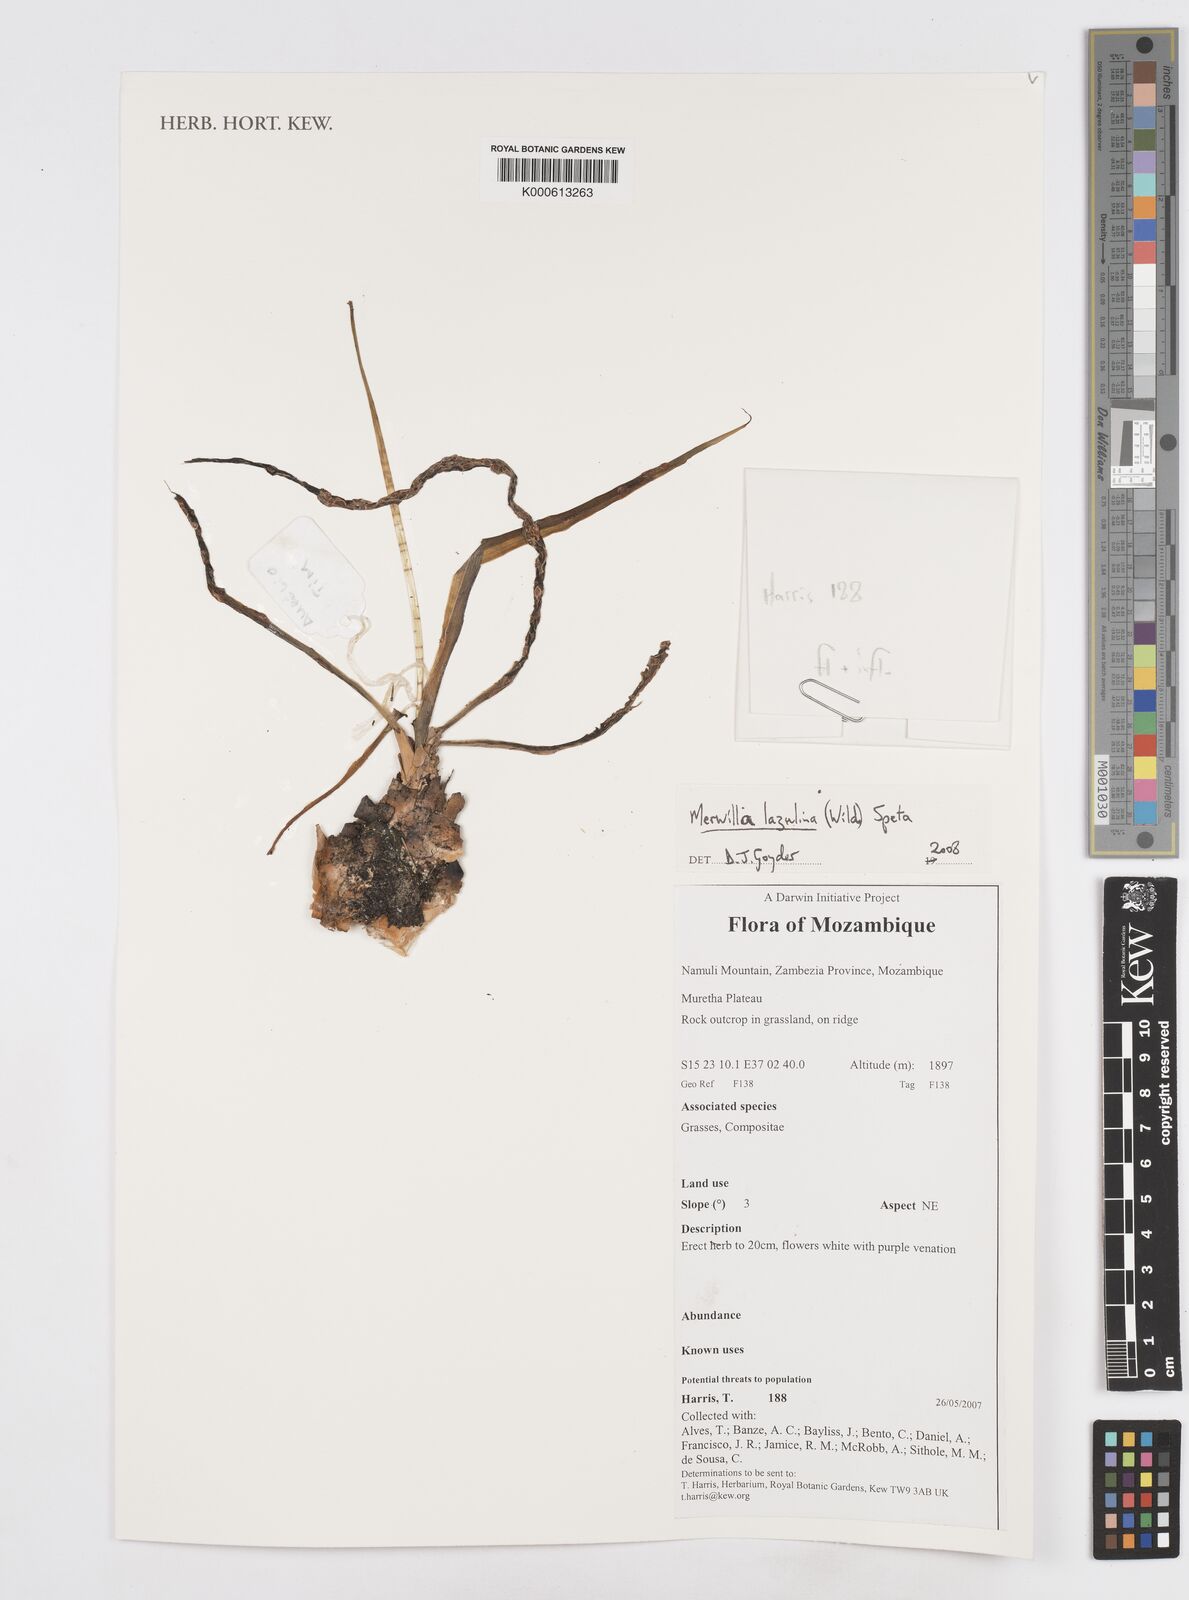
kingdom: Plantae
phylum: Tracheophyta
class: Liliopsida
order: Asparagales
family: Asparagaceae
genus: Merwilla
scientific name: Merwilla plumbea
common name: Blue-squill
